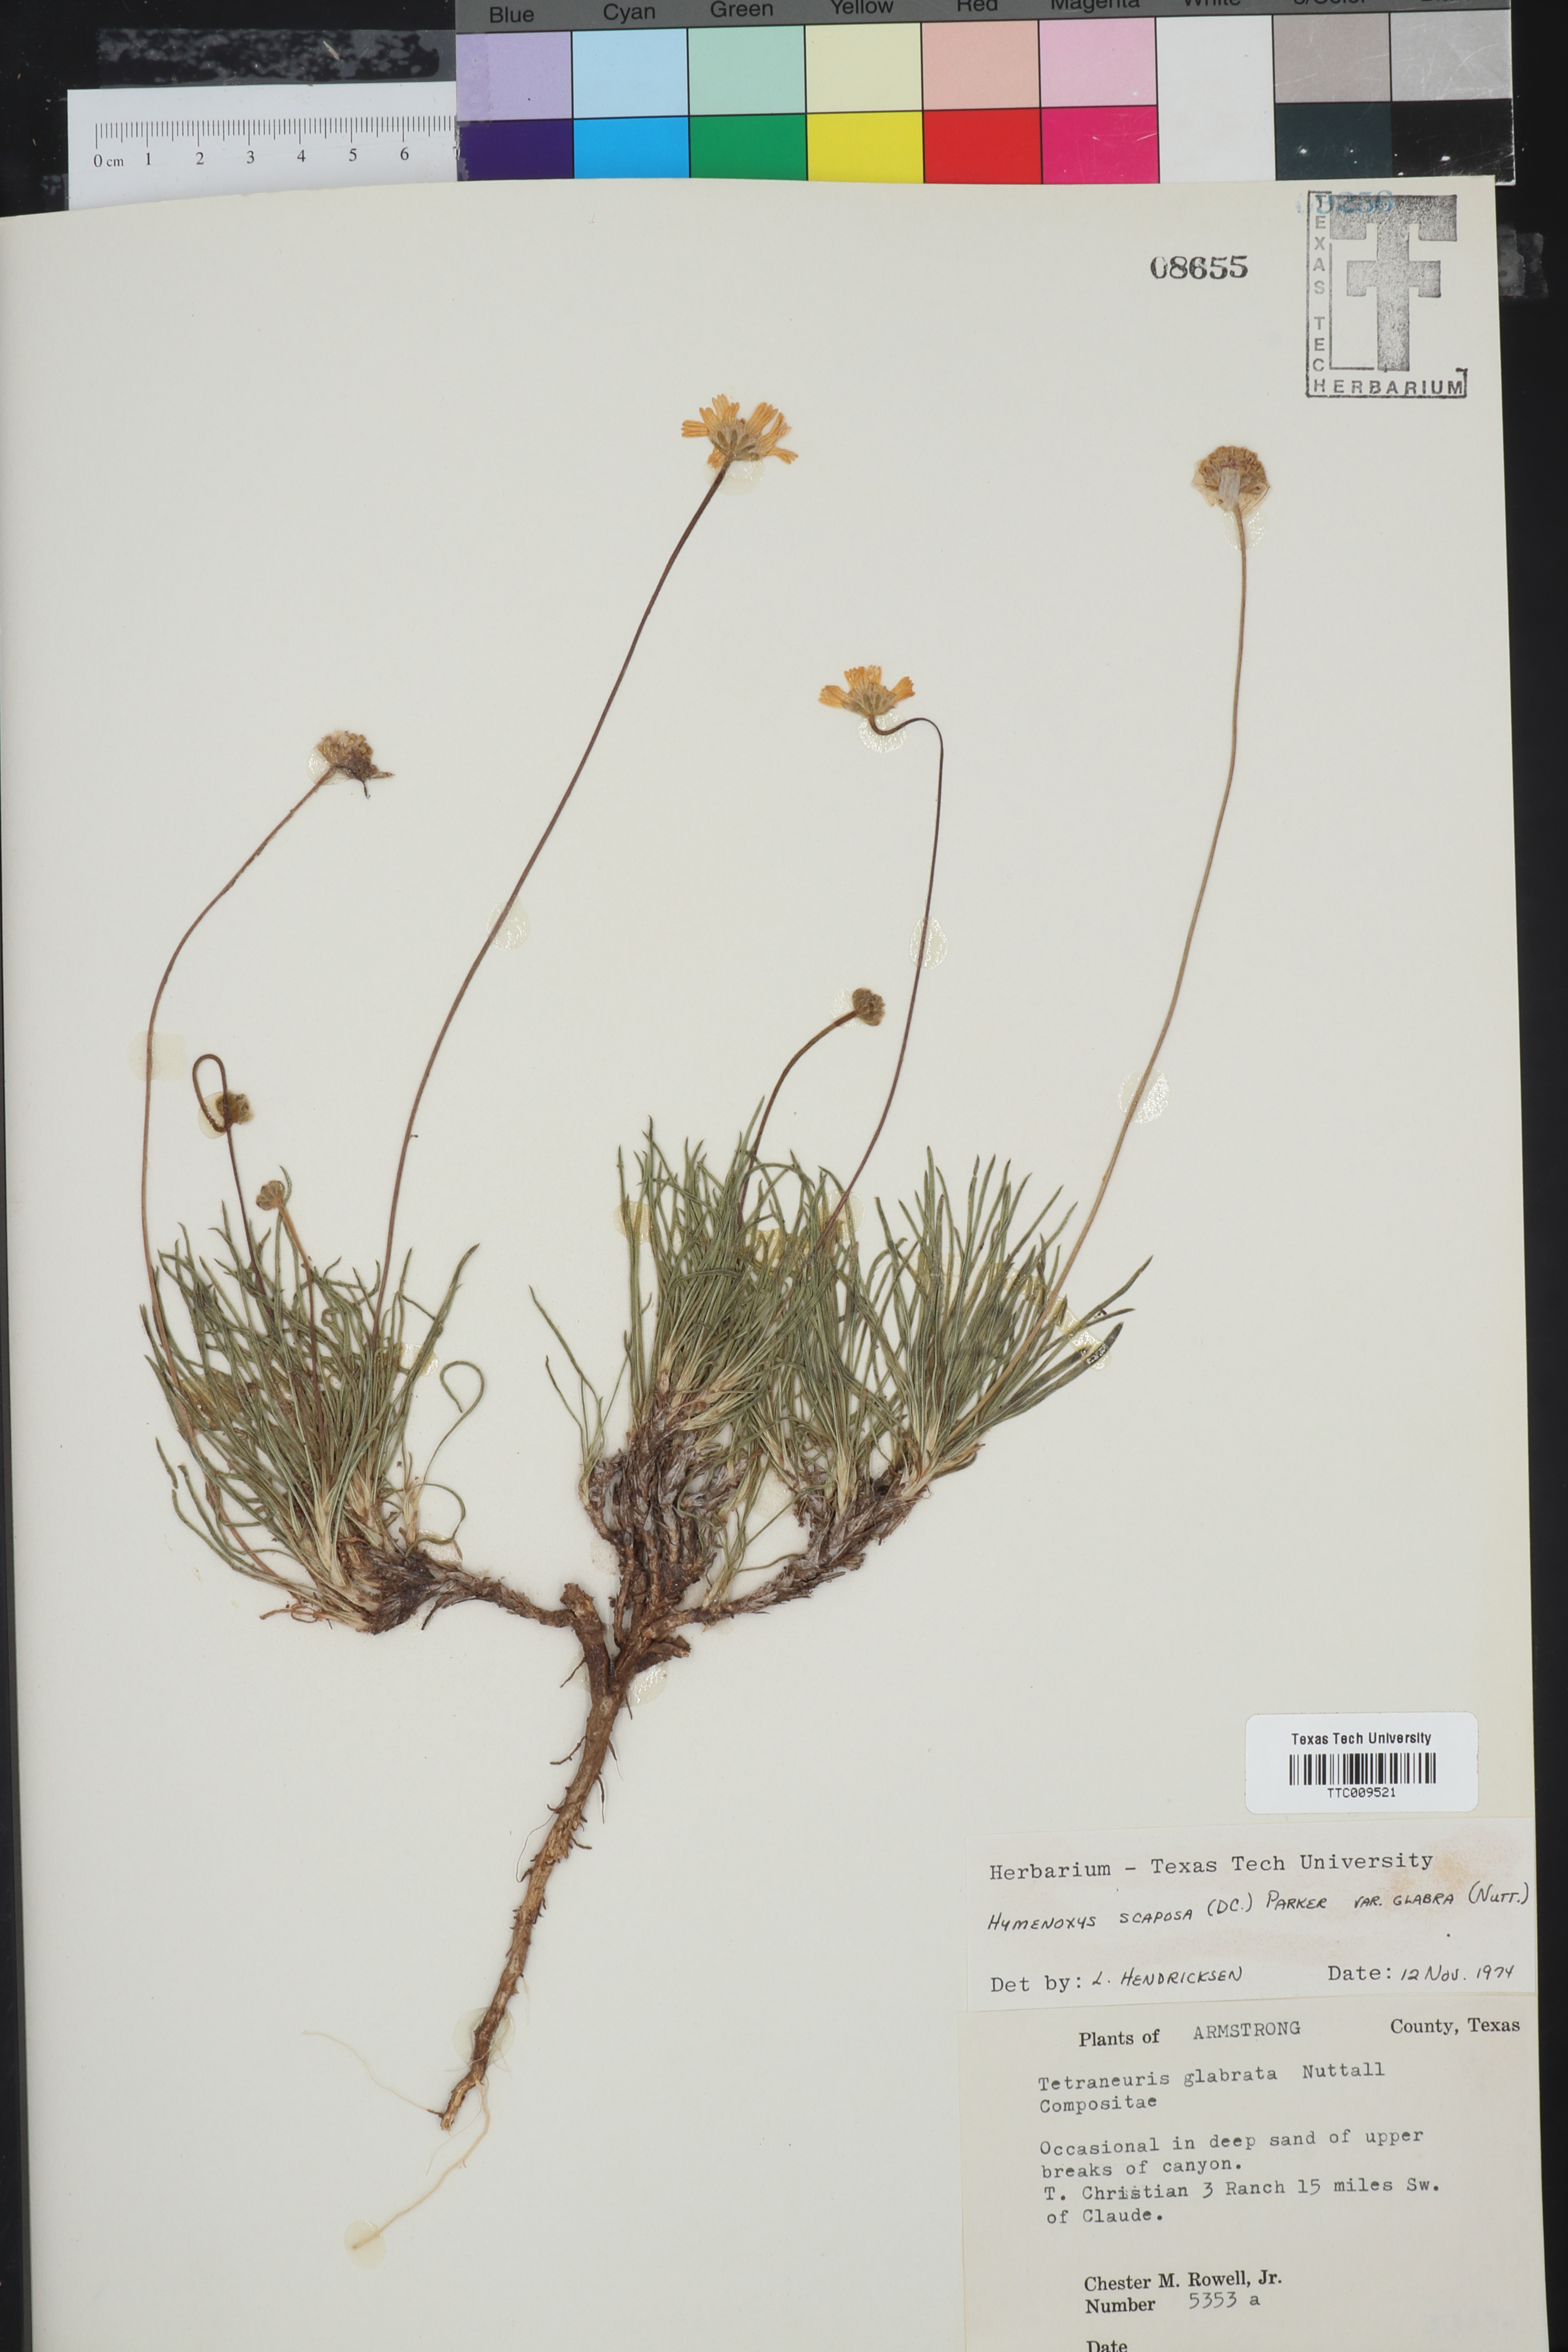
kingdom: Plantae
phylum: Tracheophyta
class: Magnoliopsida
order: Asterales
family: Asteraceae
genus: Tetraneuris
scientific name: Tetraneuris scaposa
